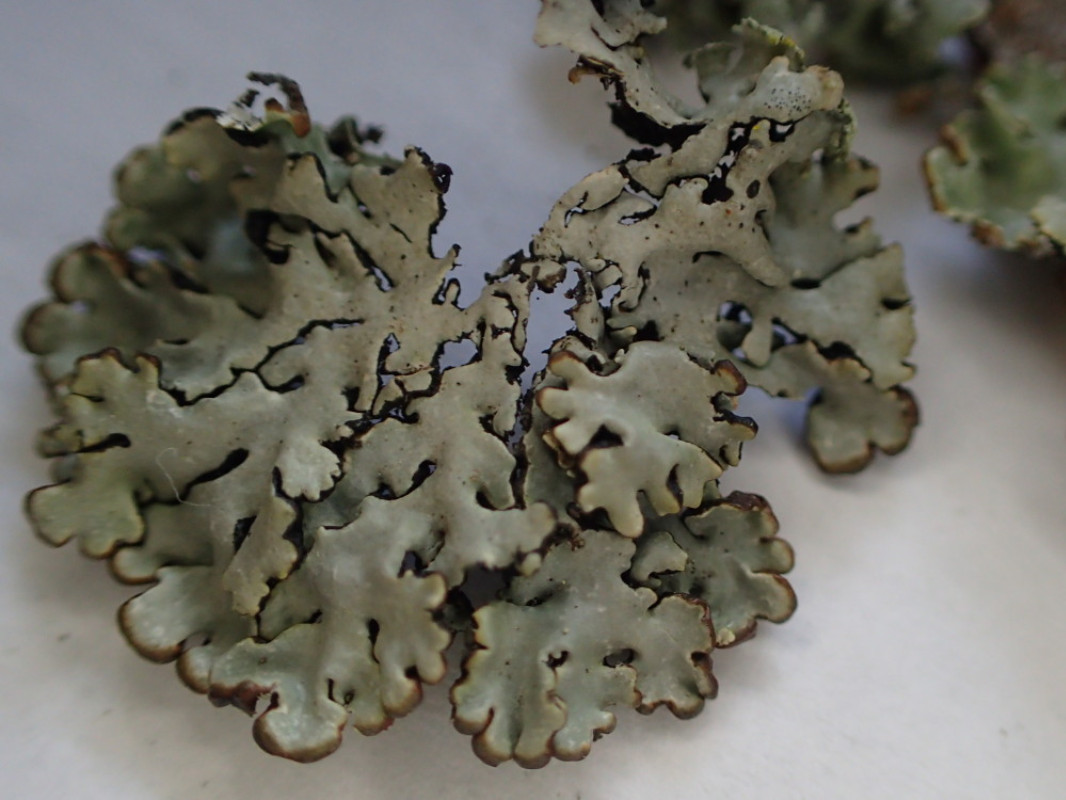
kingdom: Fungi
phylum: Ascomycota
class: Lecanoromycetes
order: Lecanorales
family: Parmeliaceae
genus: Hypogymnia
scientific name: Hypogymnia physodes
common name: almindelig kvistlav
